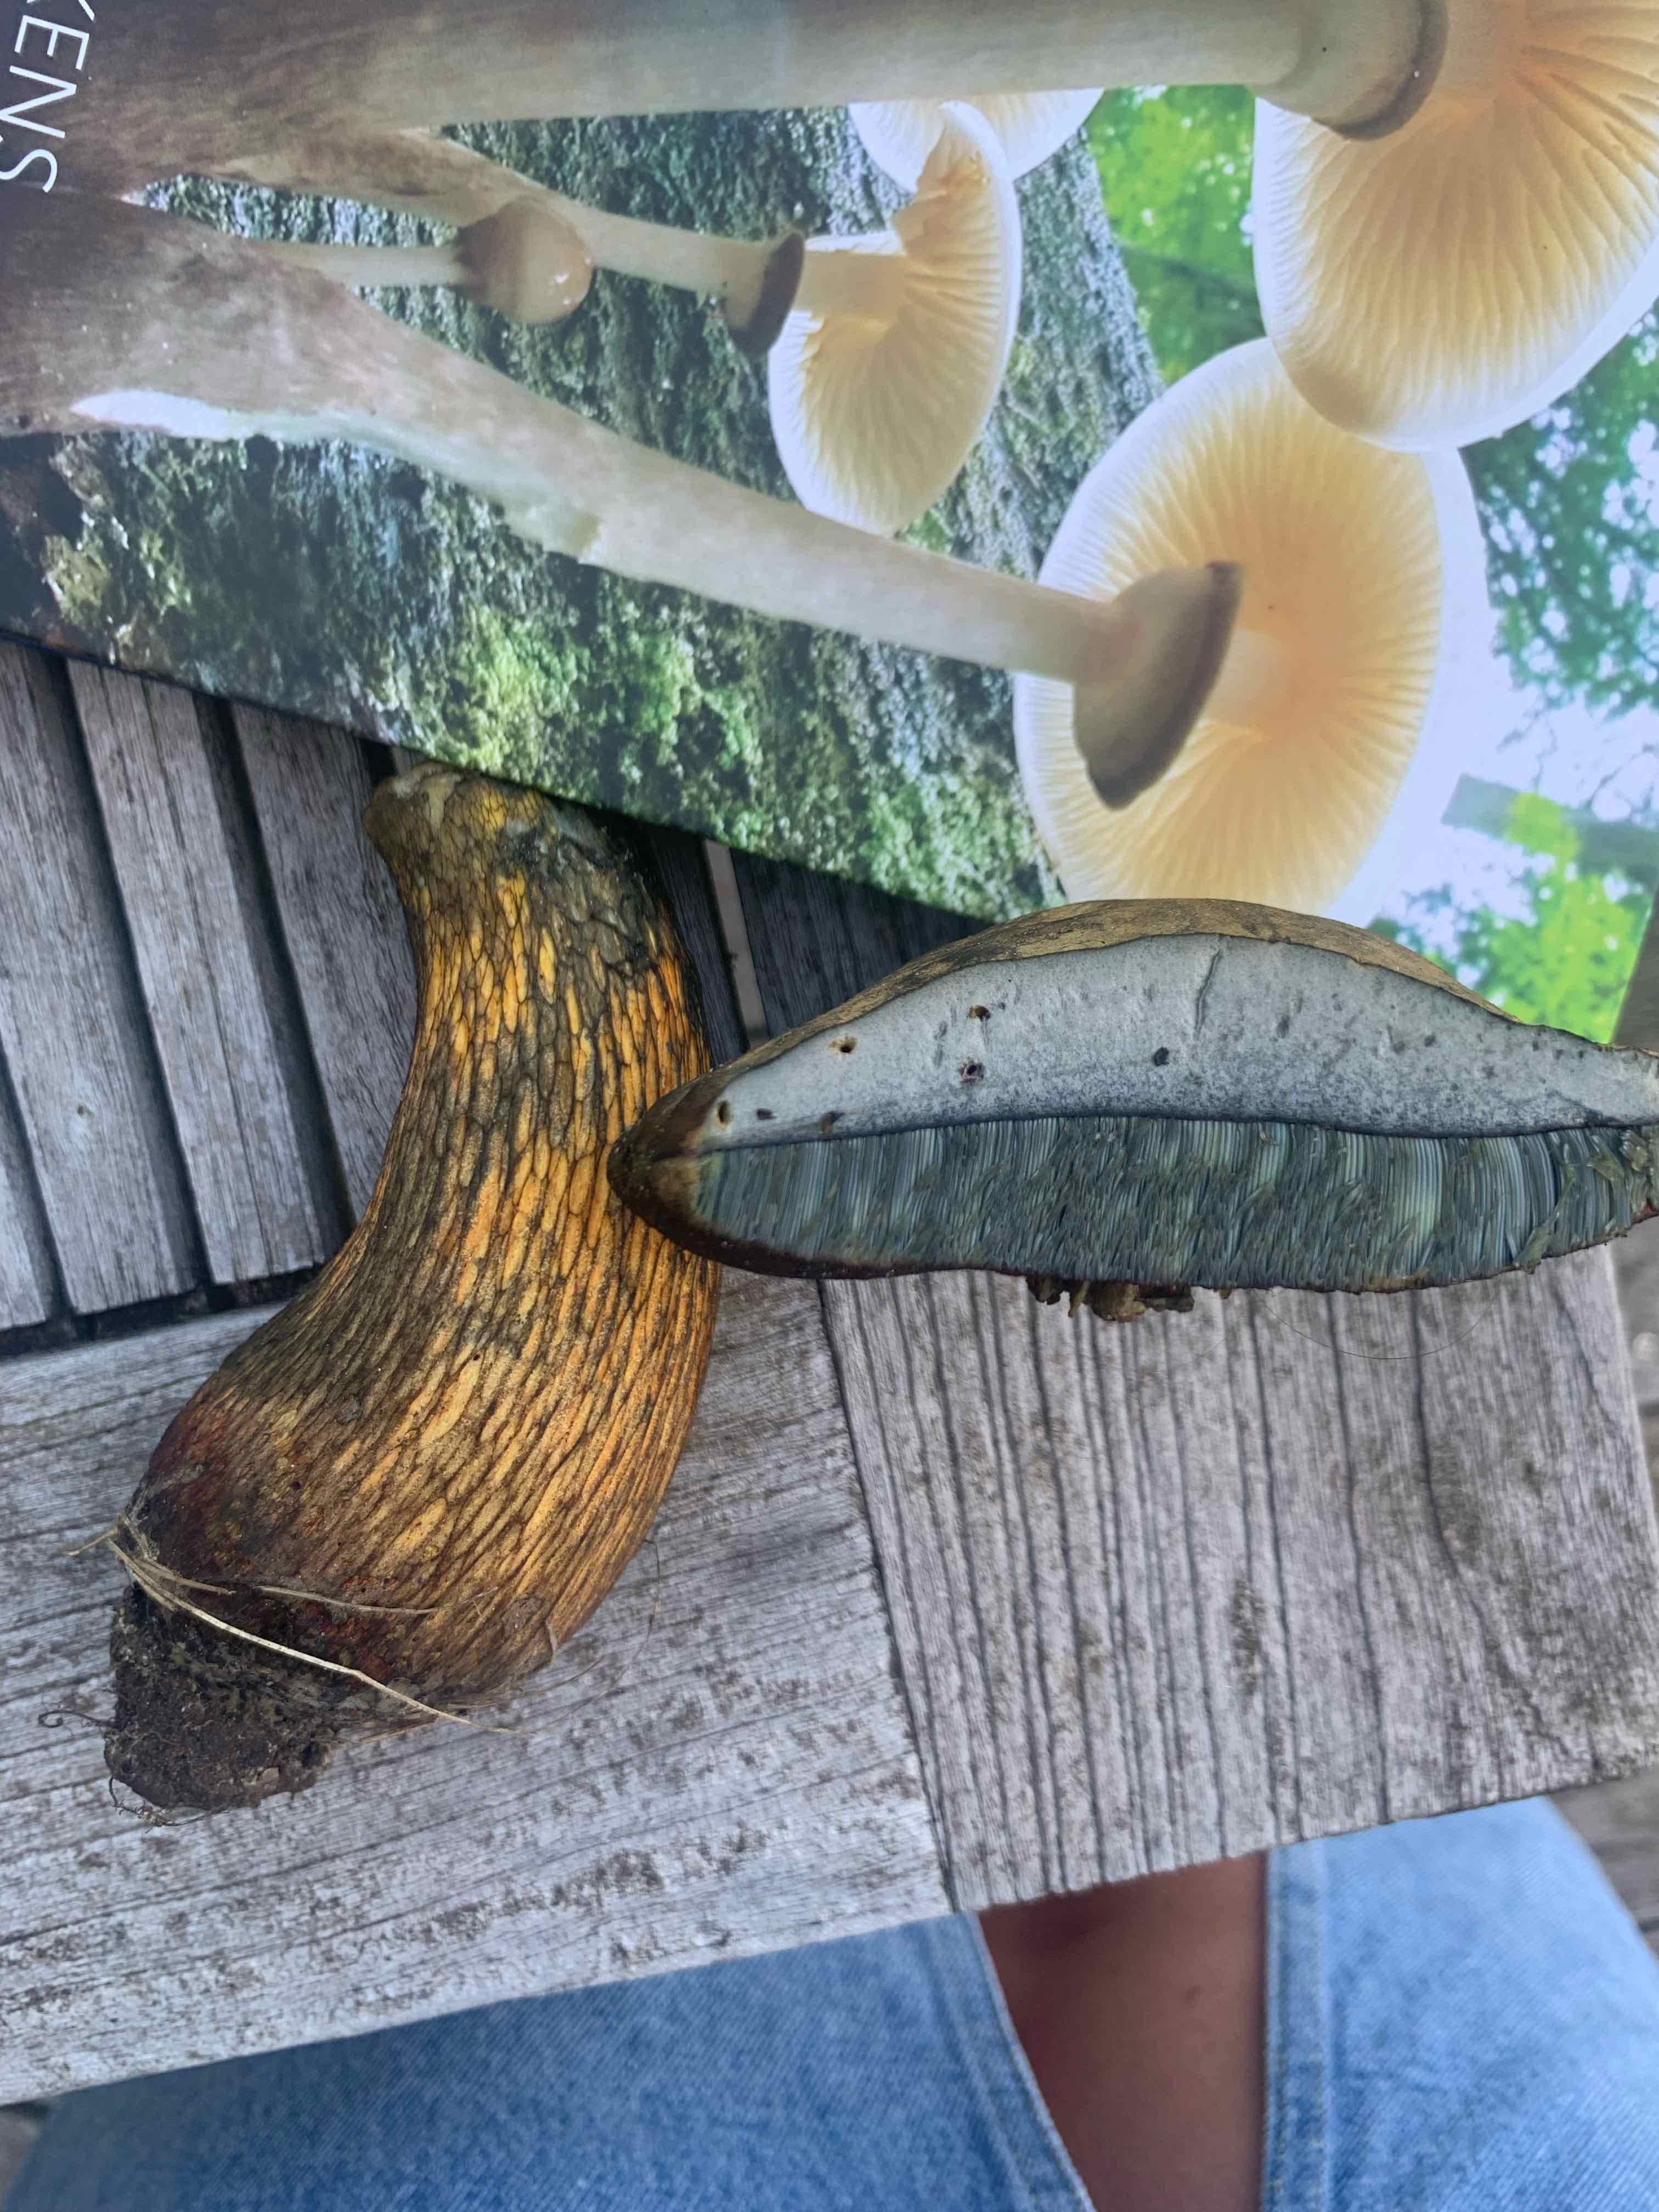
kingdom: Fungi
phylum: Basidiomycota
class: Agaricomycetes
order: Boletales
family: Boletaceae
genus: Suillellus
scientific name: Suillellus luridus
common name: netstokket indigorørhat
